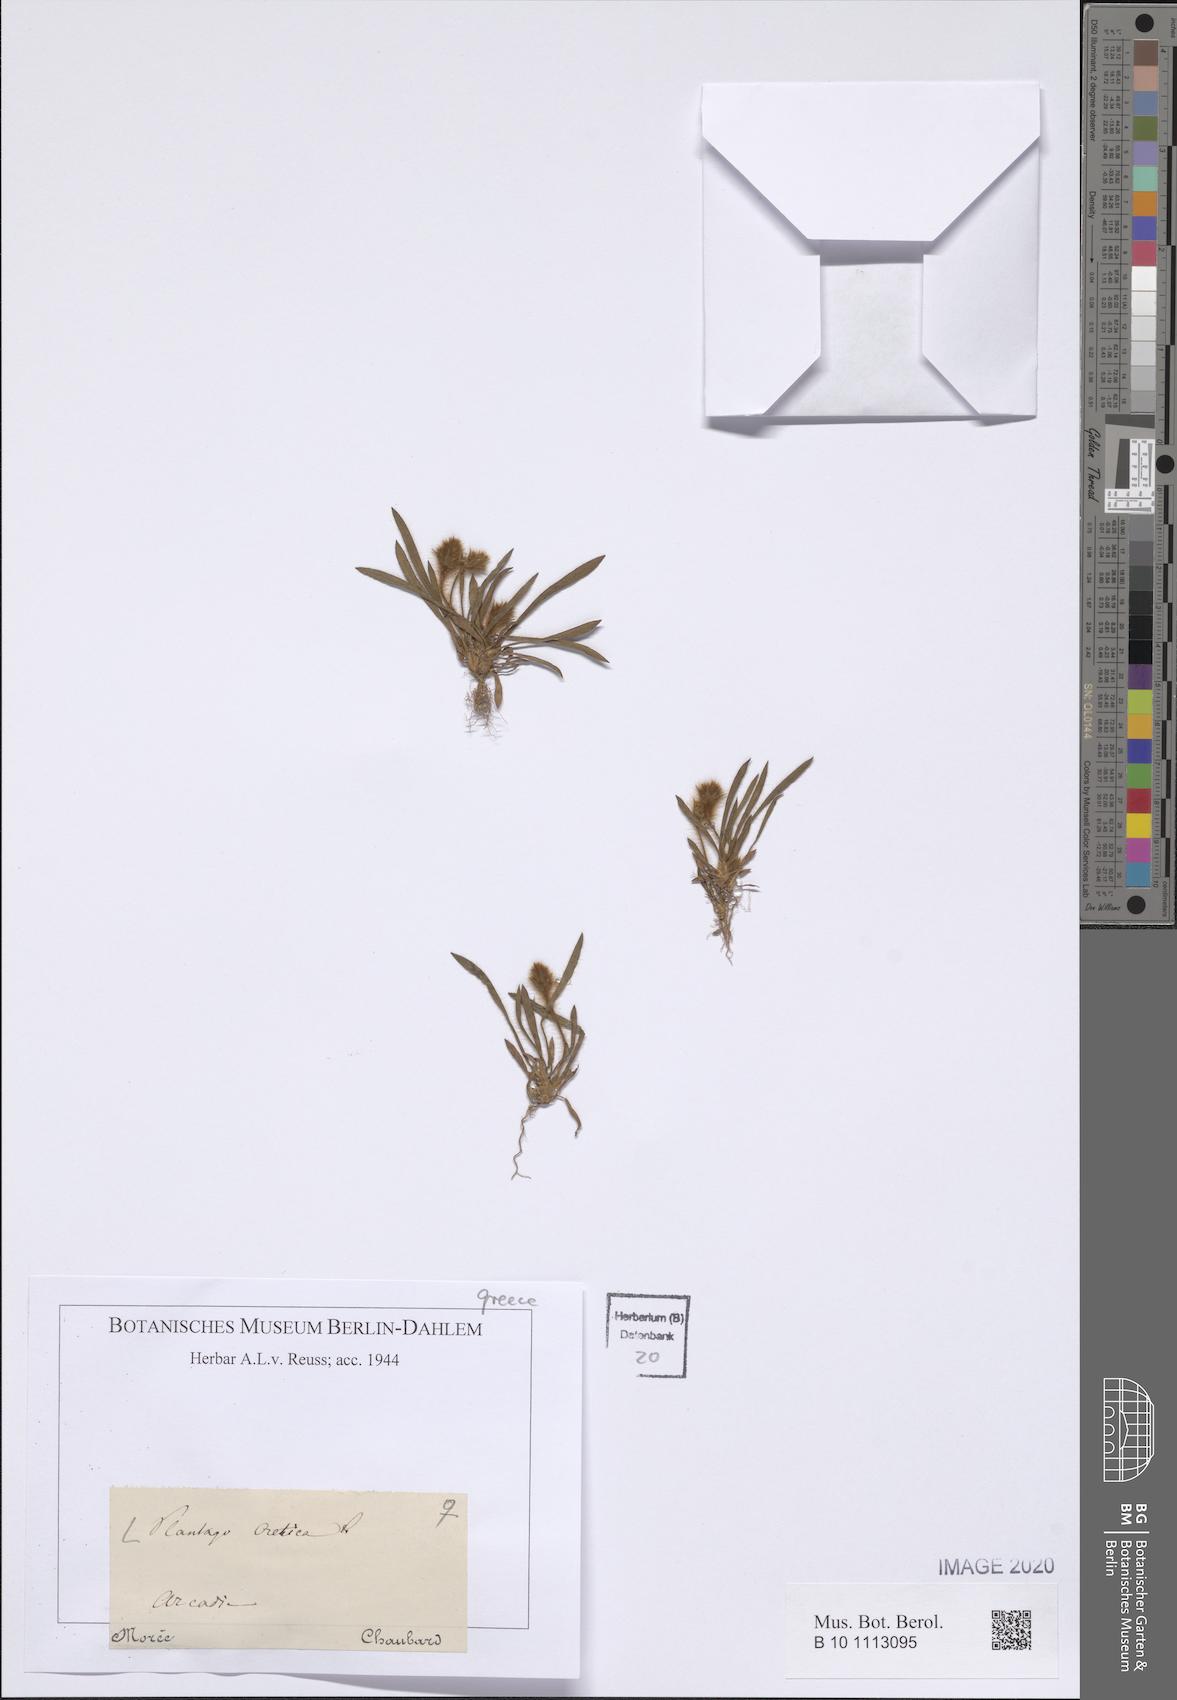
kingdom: Plantae
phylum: Tracheophyta
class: Magnoliopsida
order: Lamiales
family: Plantaginaceae
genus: Plantago
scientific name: Plantago cretica
